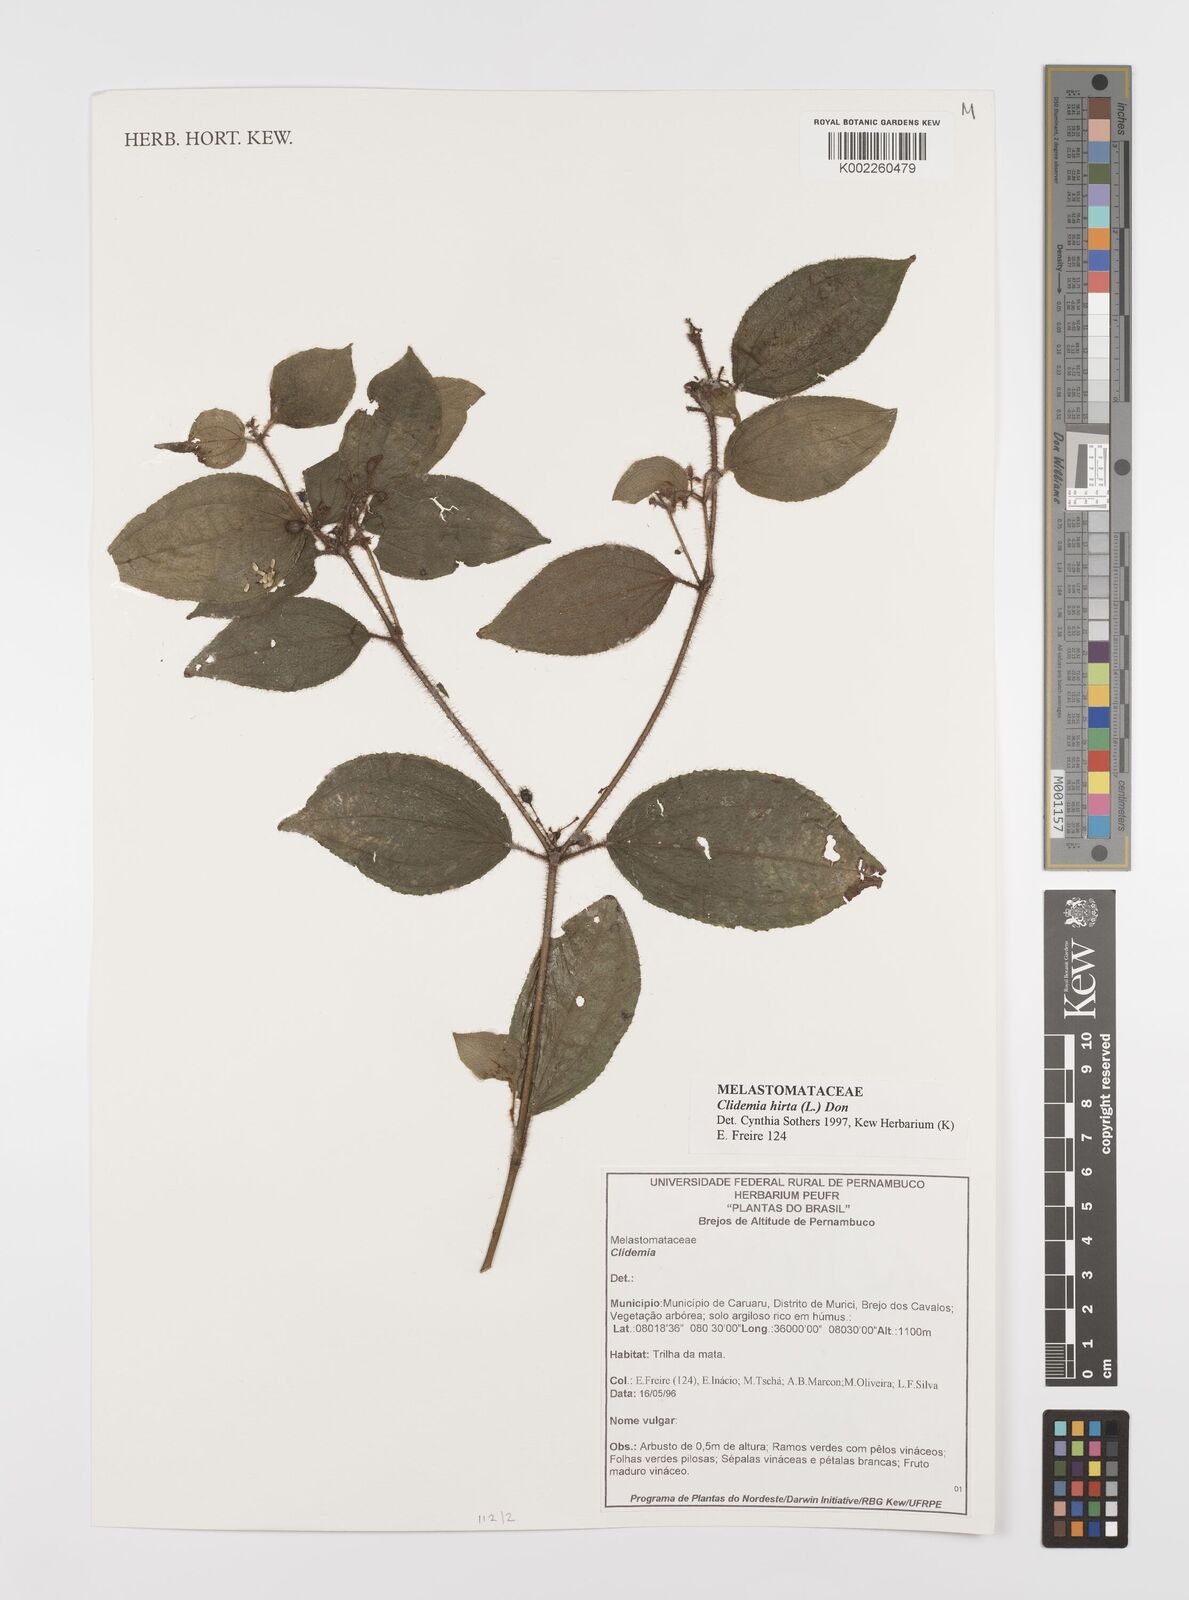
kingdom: Plantae
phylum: Tracheophyta
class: Magnoliopsida
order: Myrtales
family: Melastomataceae
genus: Miconia
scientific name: Miconia crenata
